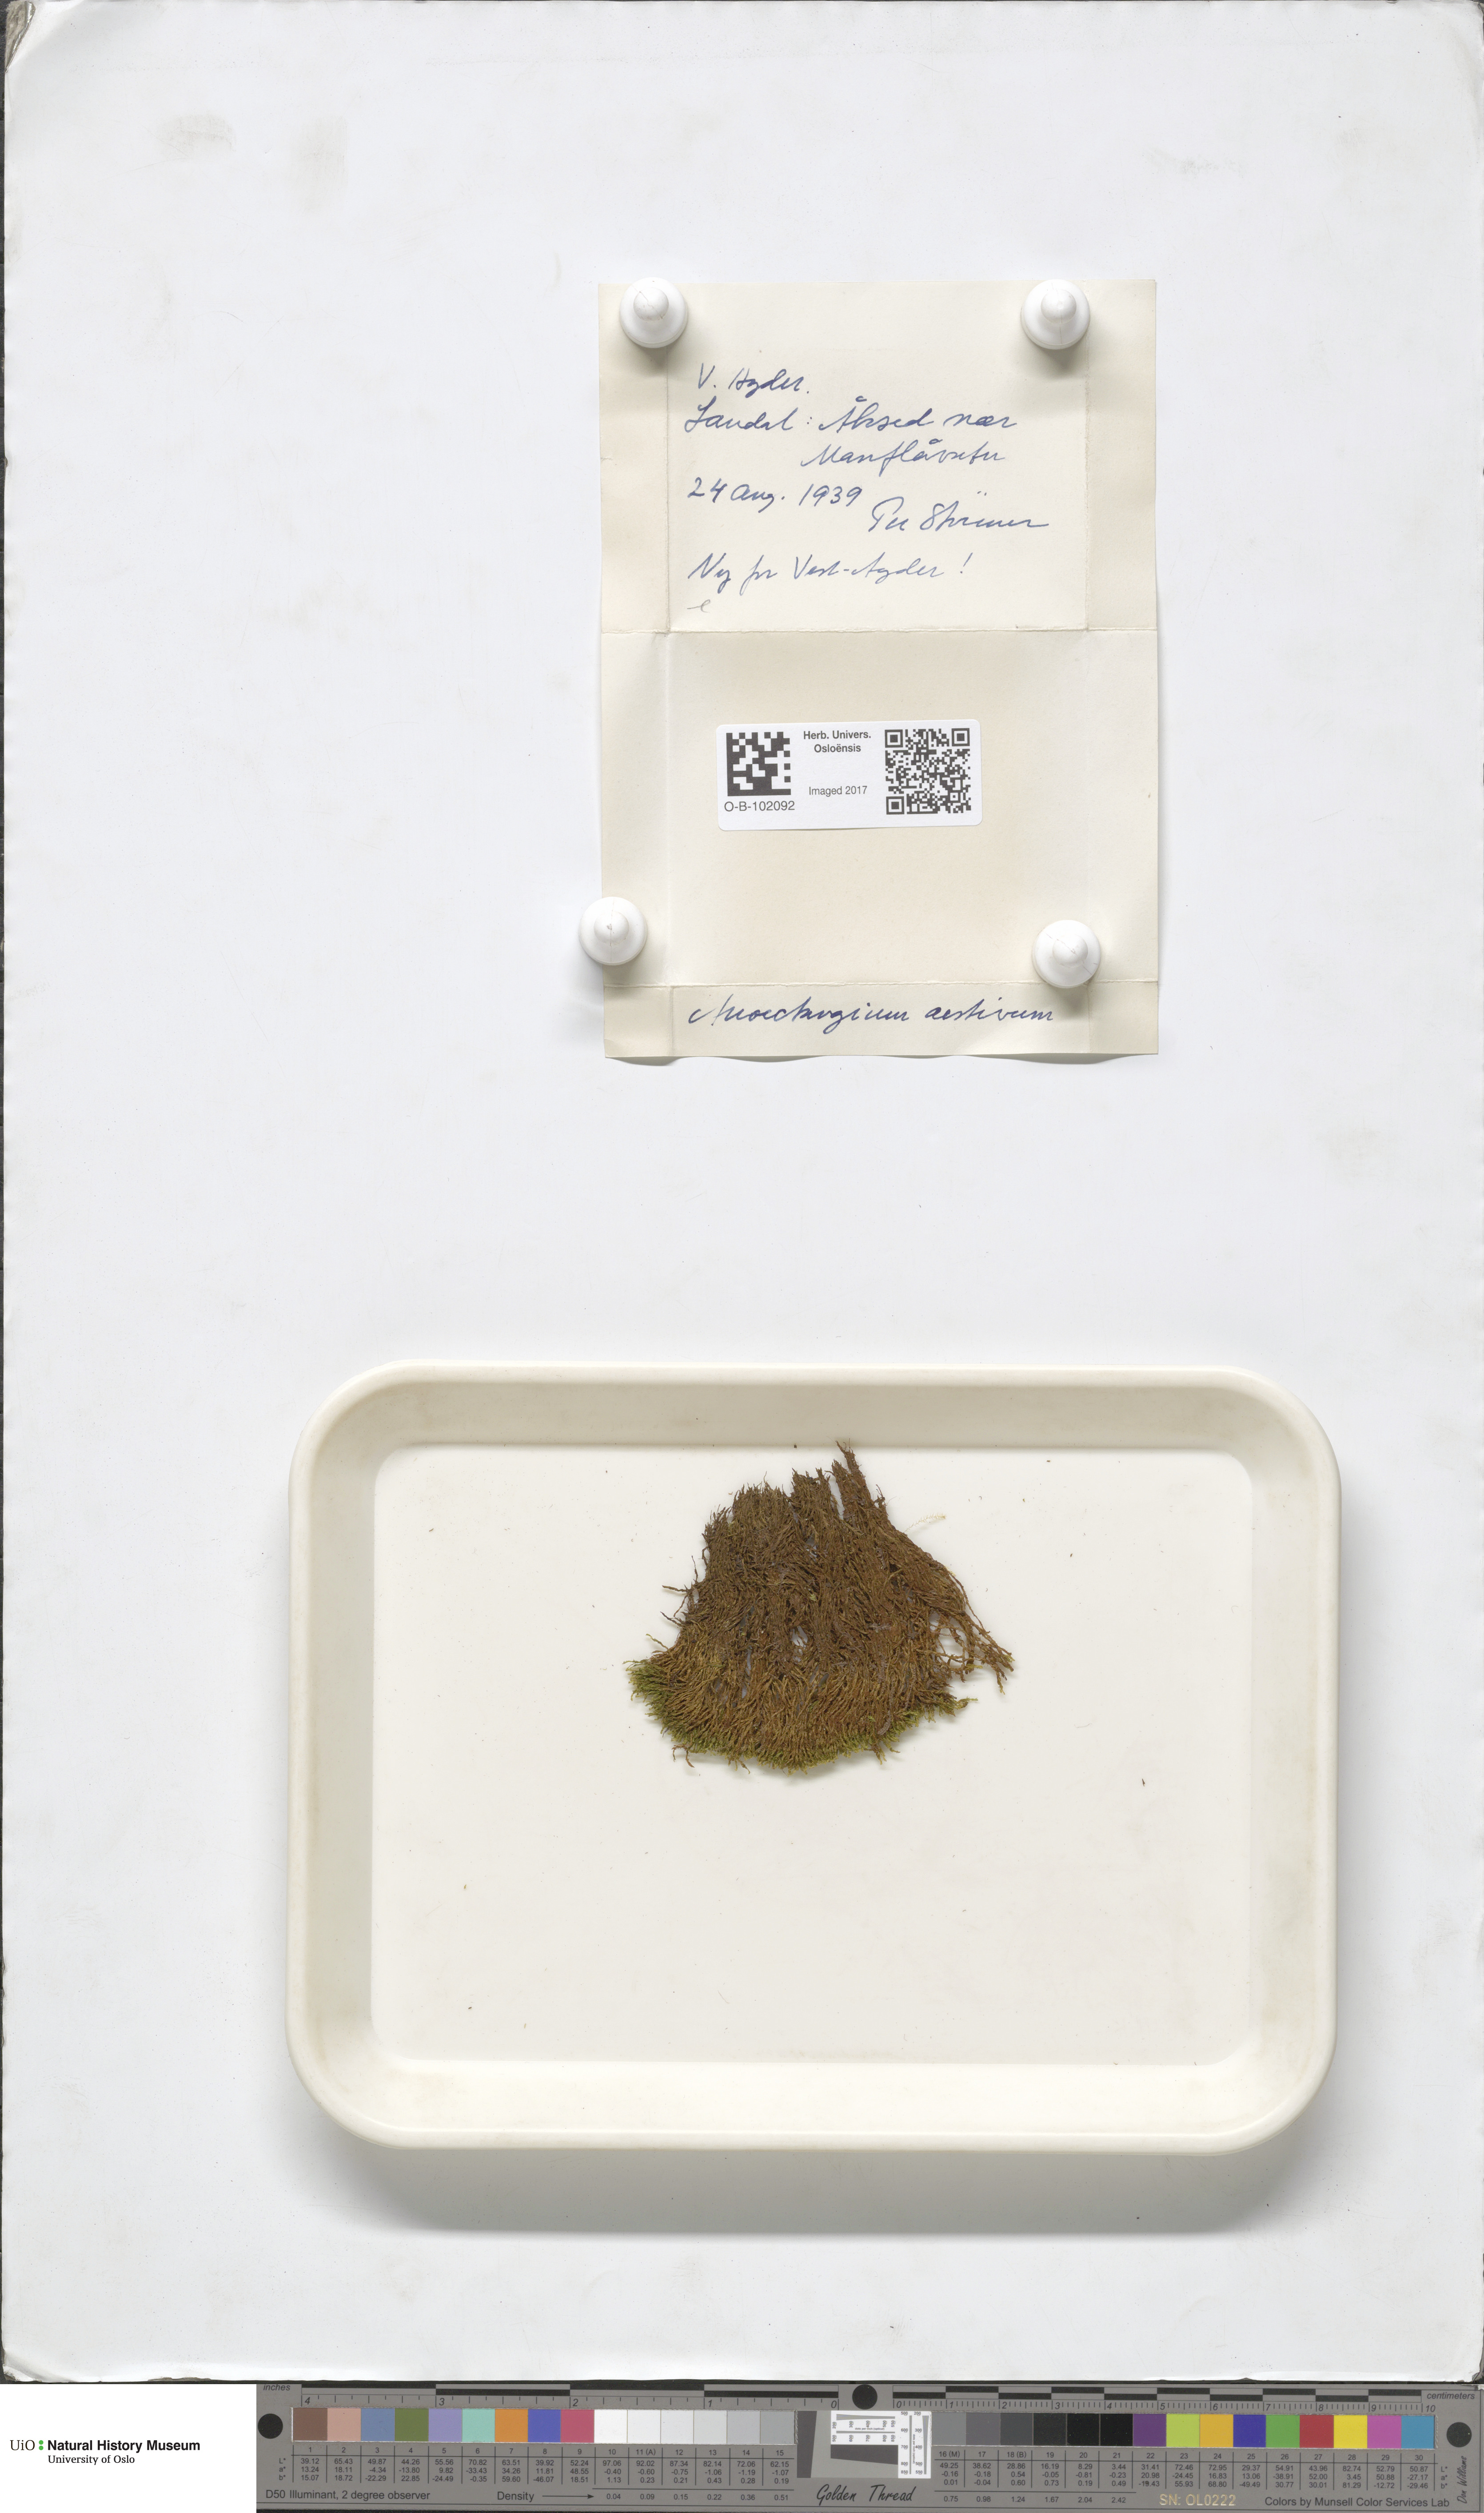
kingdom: Plantae
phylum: Bryophyta
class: Bryopsida
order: Pottiales
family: Pottiaceae
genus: Anoectangium
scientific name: Anoectangium aestivum
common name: Summer-moss
